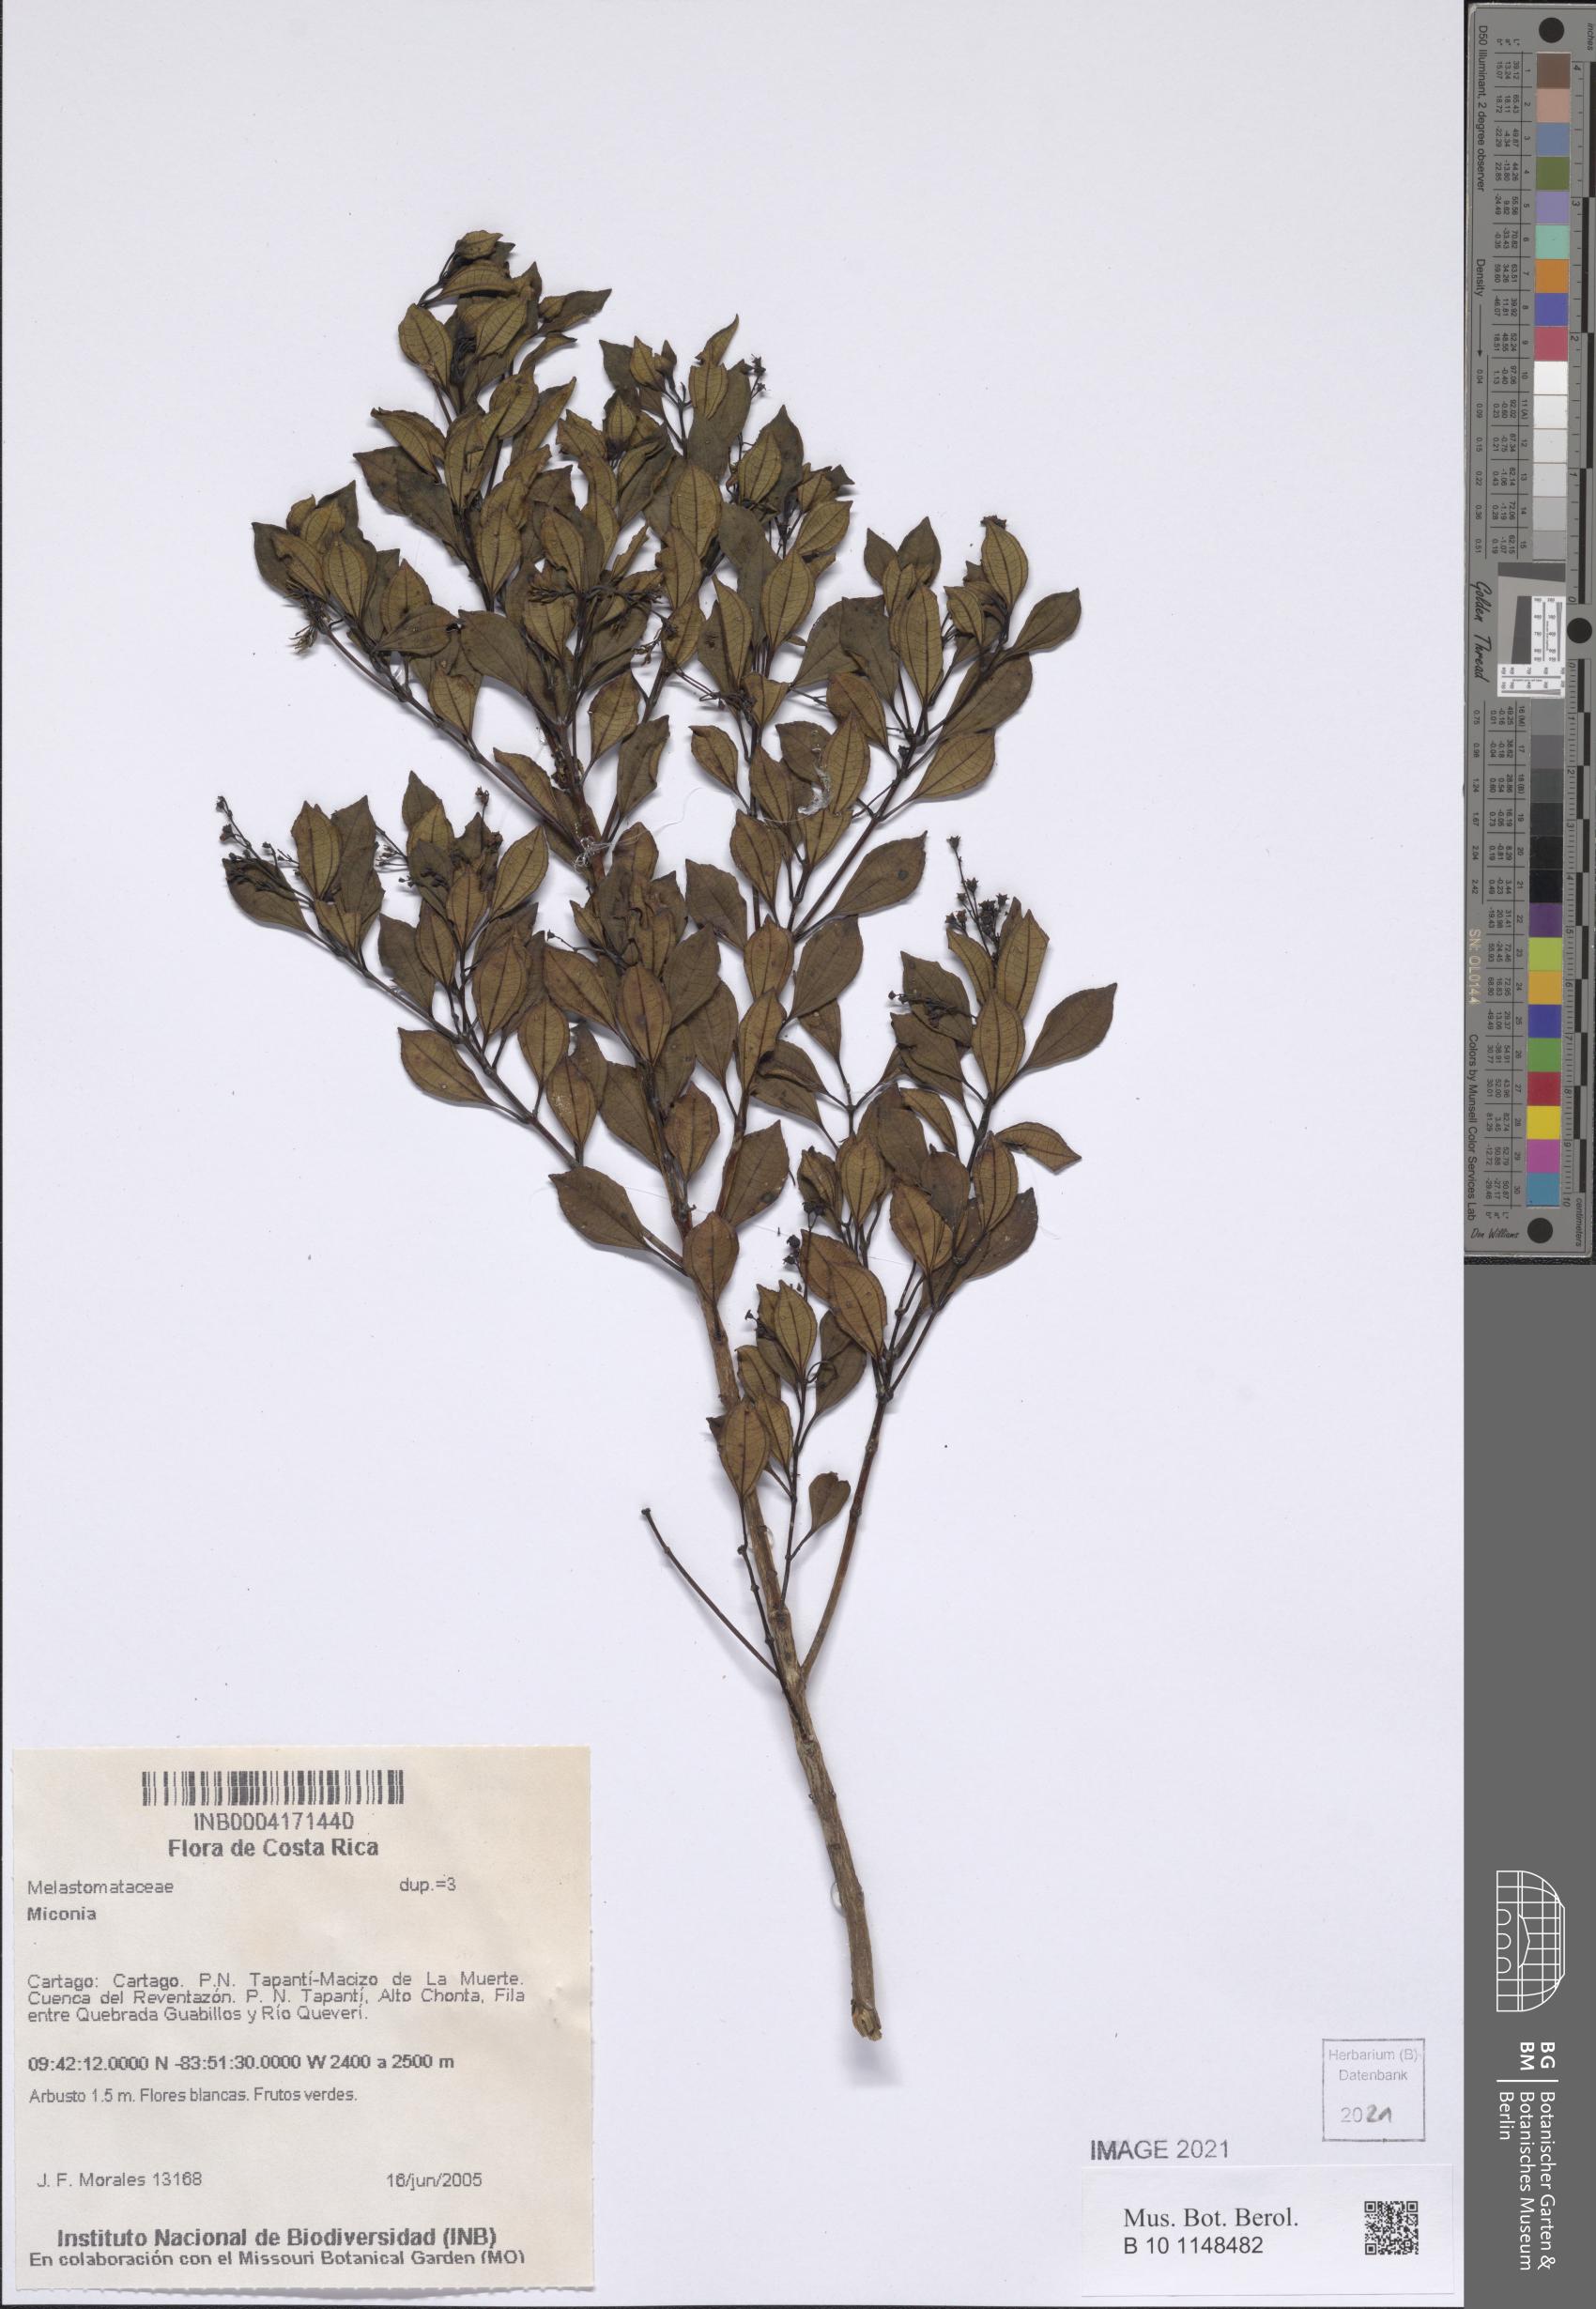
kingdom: Plantae
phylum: Tracheophyta
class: Magnoliopsida
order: Myrtales
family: Melastomataceae
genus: Miconia
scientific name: Miconia
